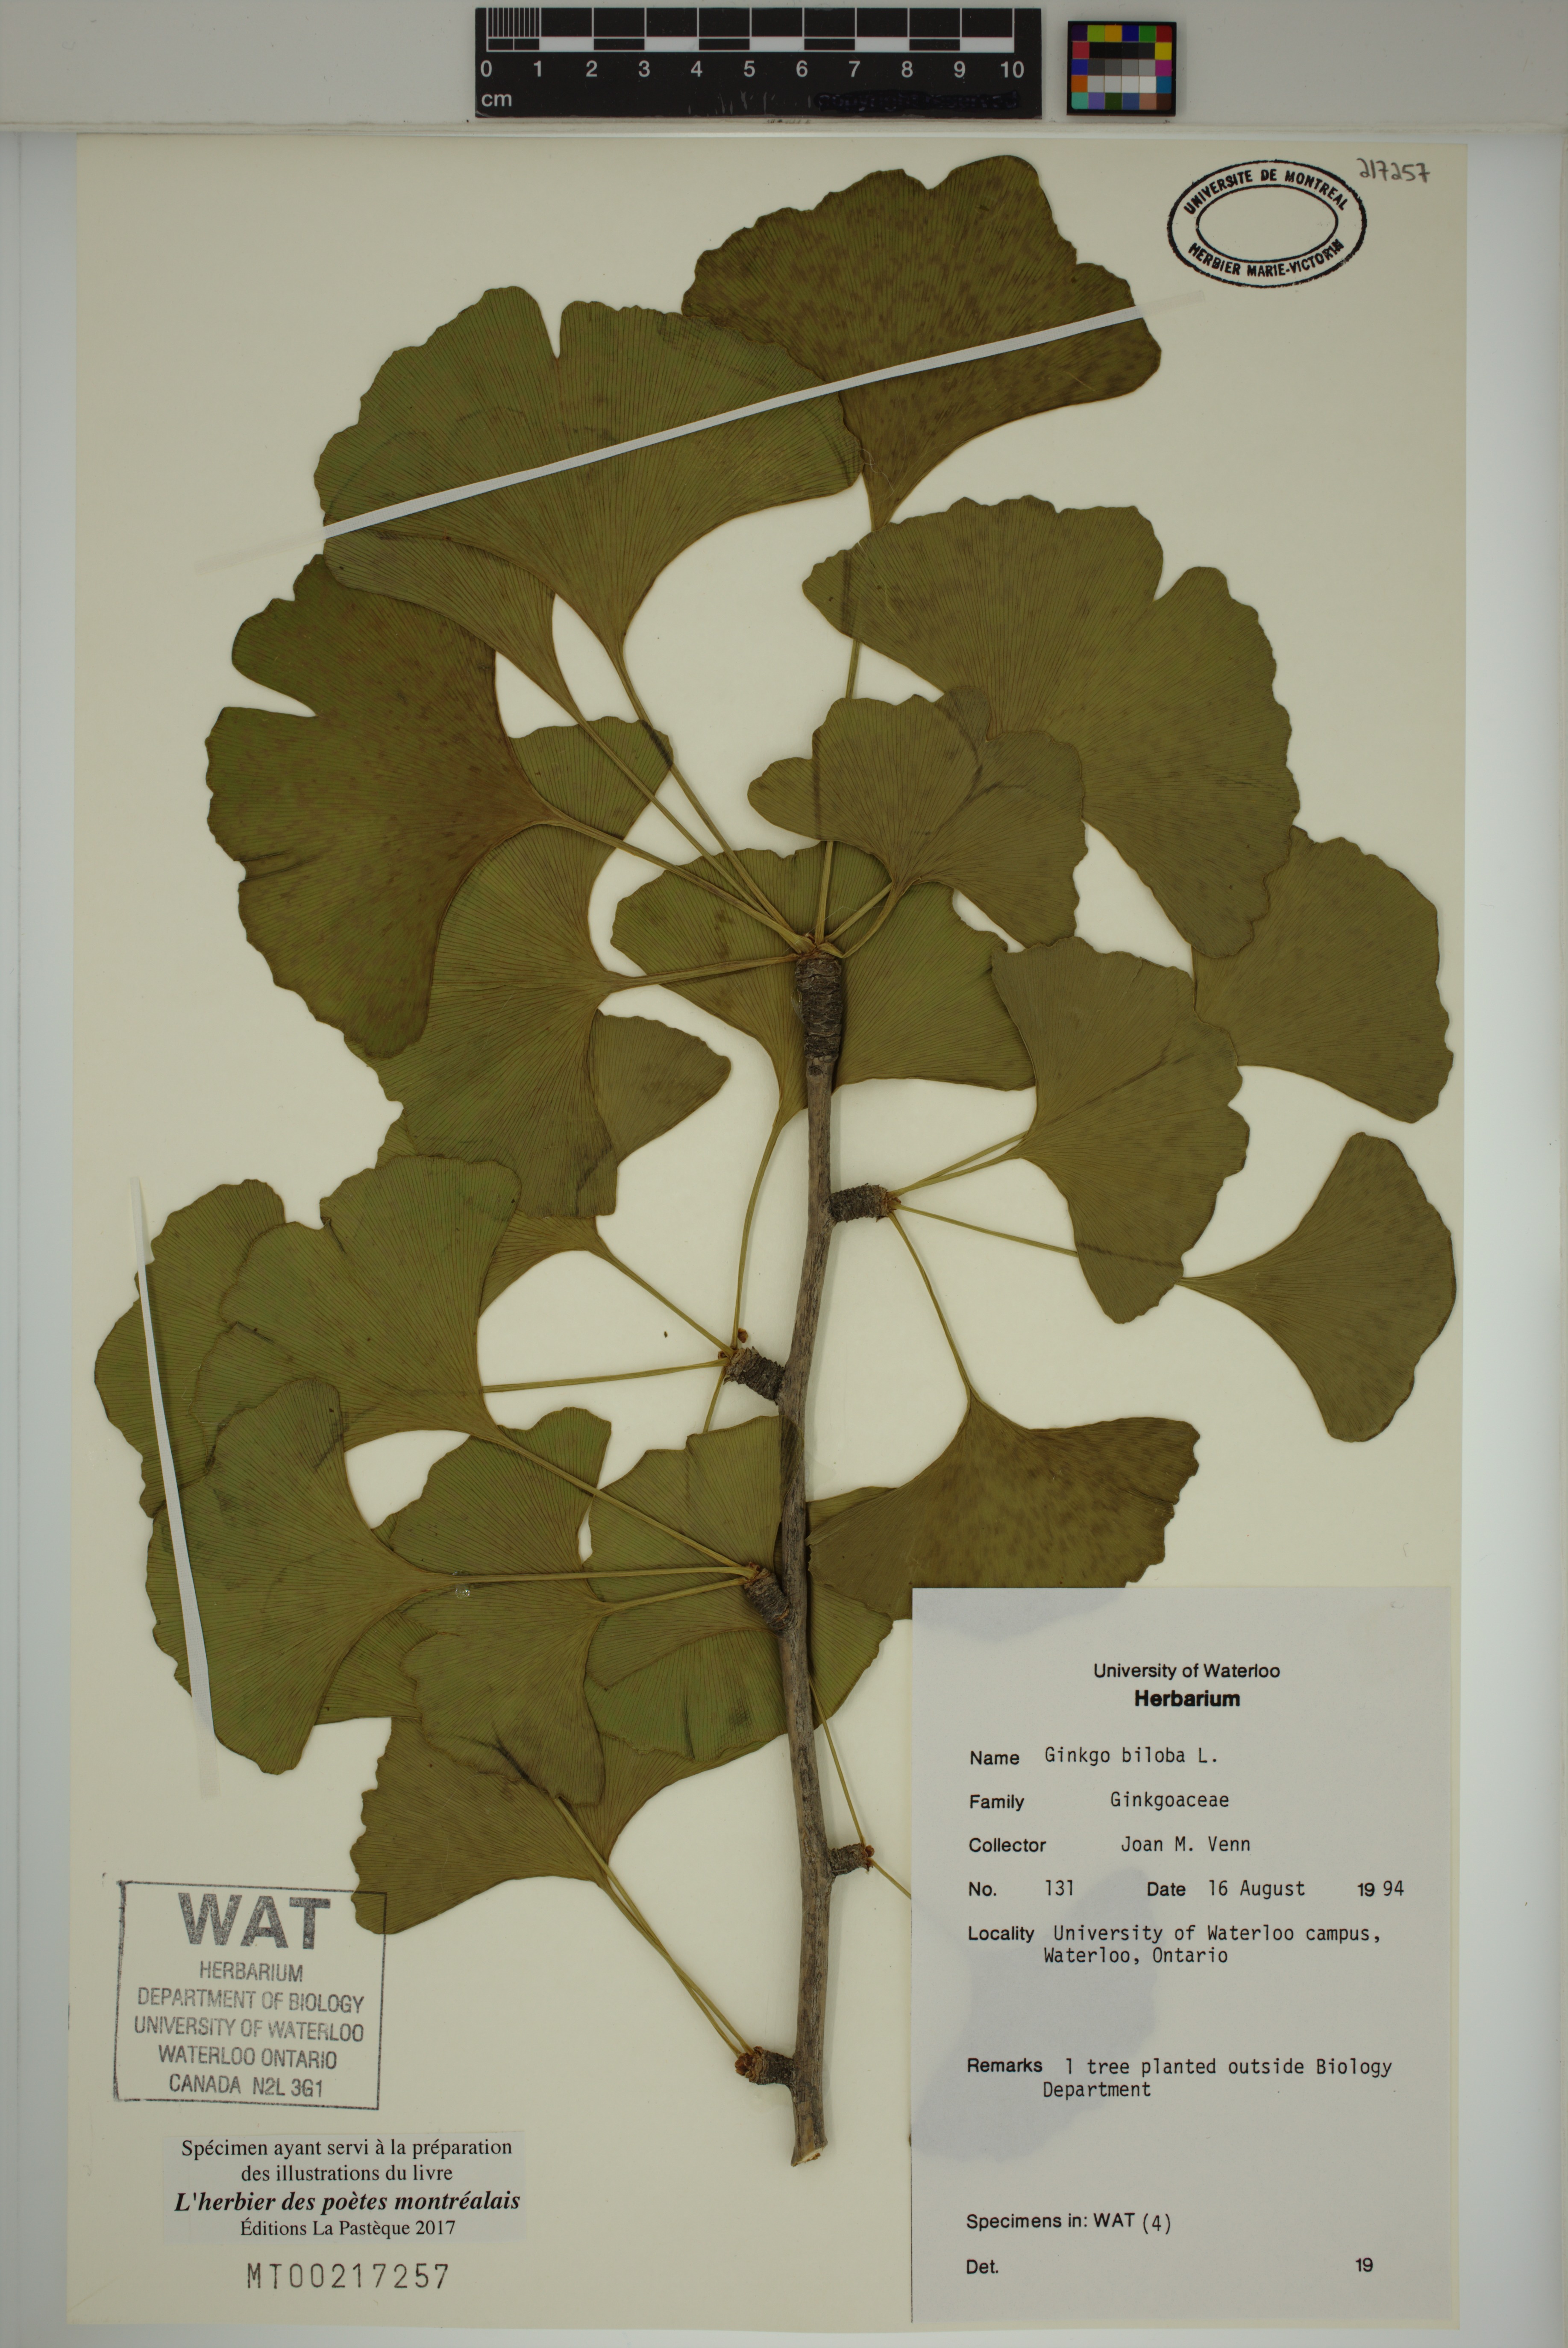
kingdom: Plantae
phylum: Tracheophyta
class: Ginkgoopsida
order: Ginkgoales
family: Ginkgoaceae
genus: Ginkgo
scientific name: Ginkgo biloba
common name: Ginkgo
